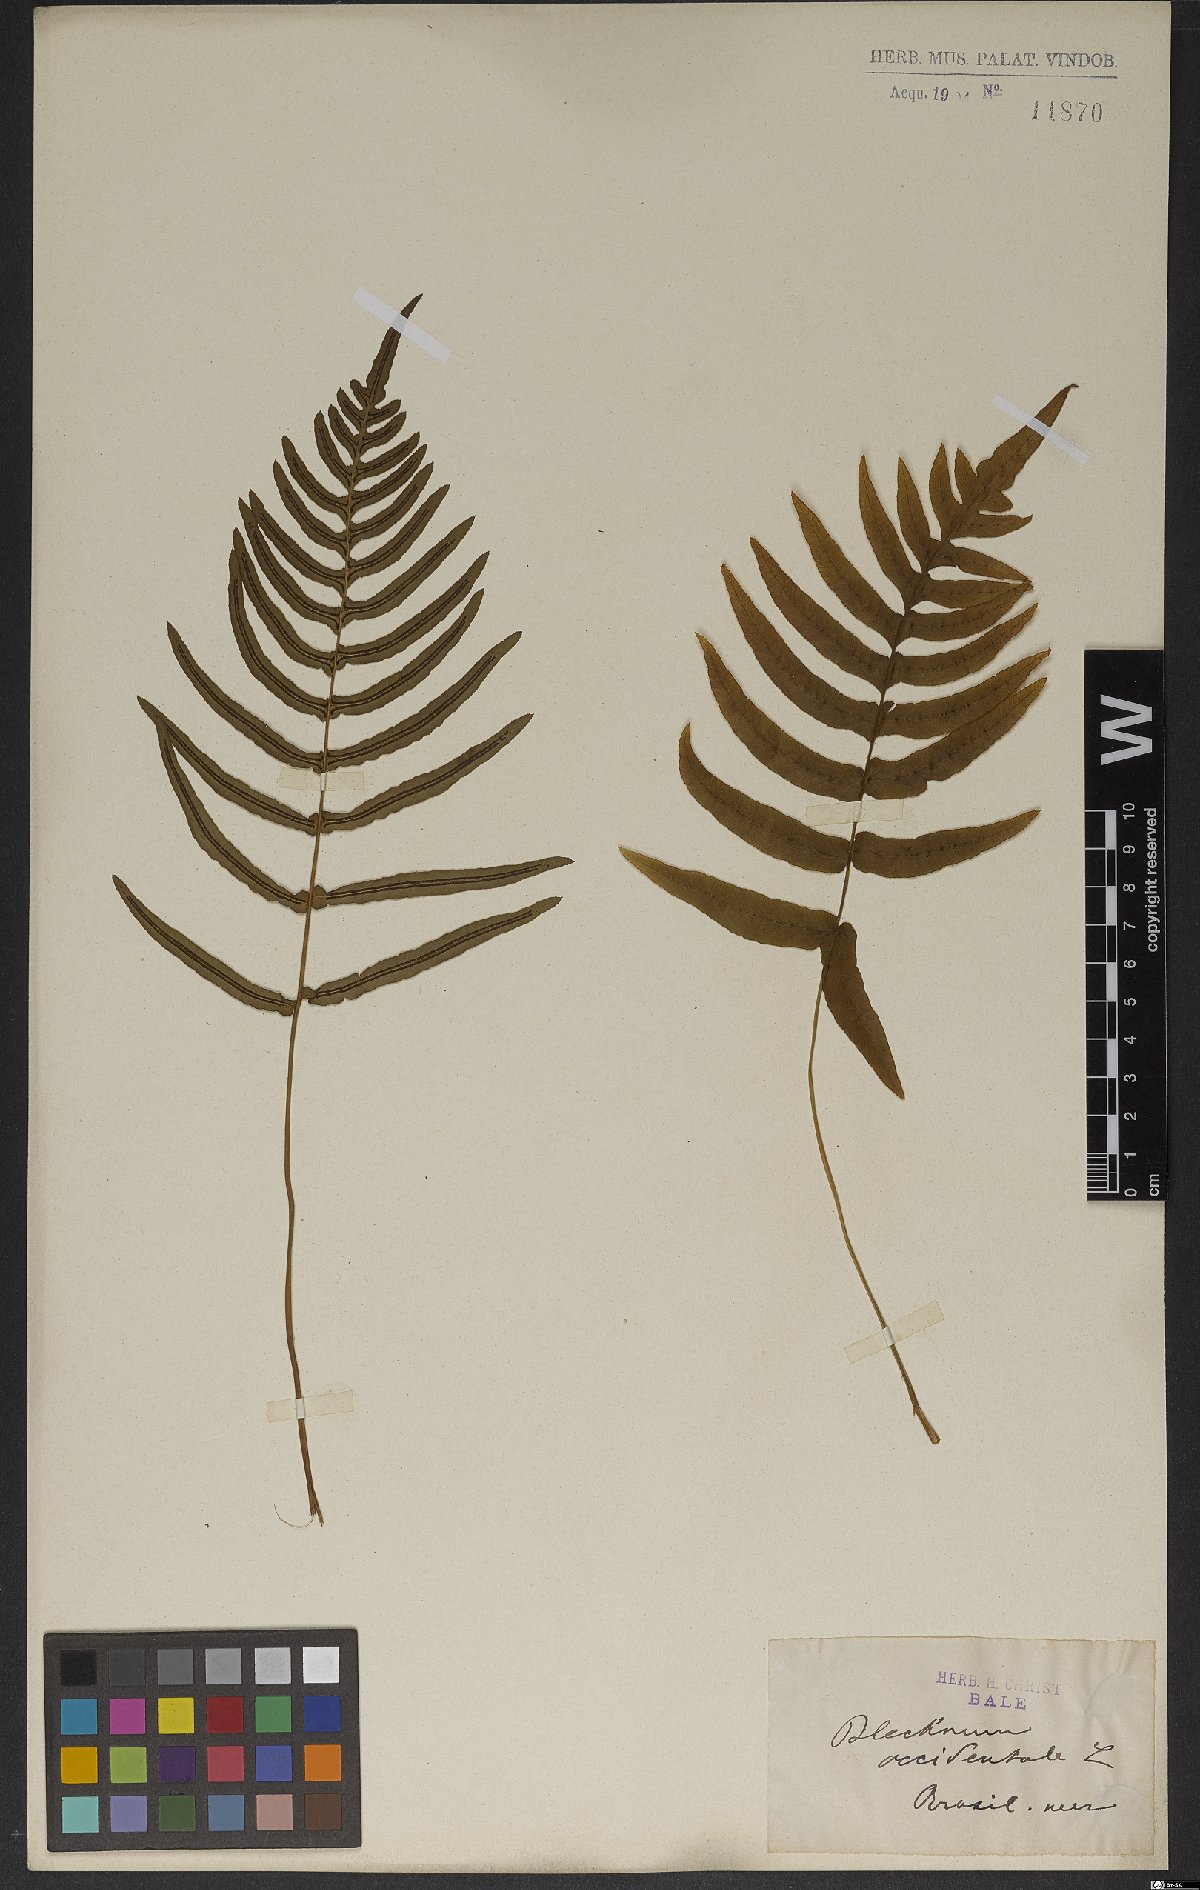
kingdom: Plantae
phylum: Tracheophyta
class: Polypodiopsida
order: Polypodiales
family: Blechnaceae
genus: Blechnum
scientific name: Blechnum occidentale
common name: Hammock fern
